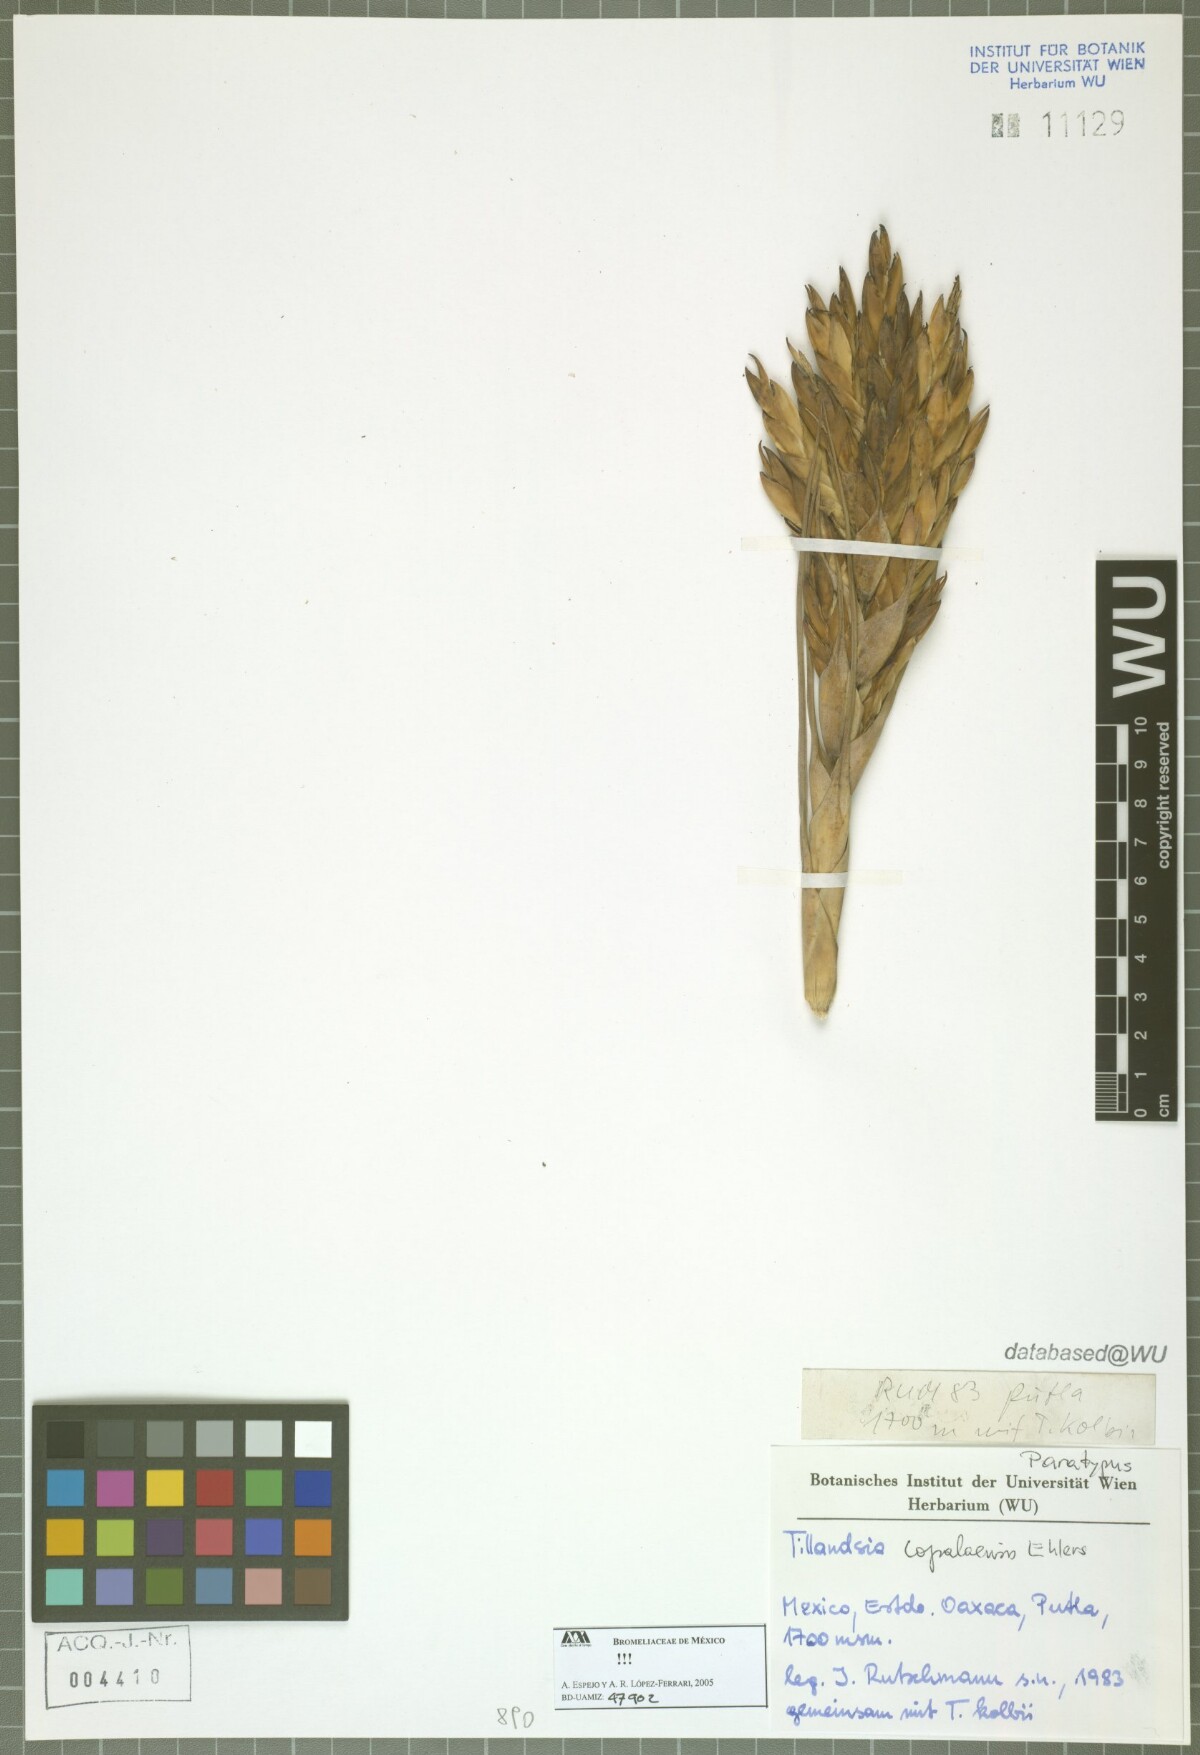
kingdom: Plantae
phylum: Tracheophyta
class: Liliopsida
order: Poales
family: Bromeliaceae
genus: Tillandsia
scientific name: Tillandsia copalaensis
